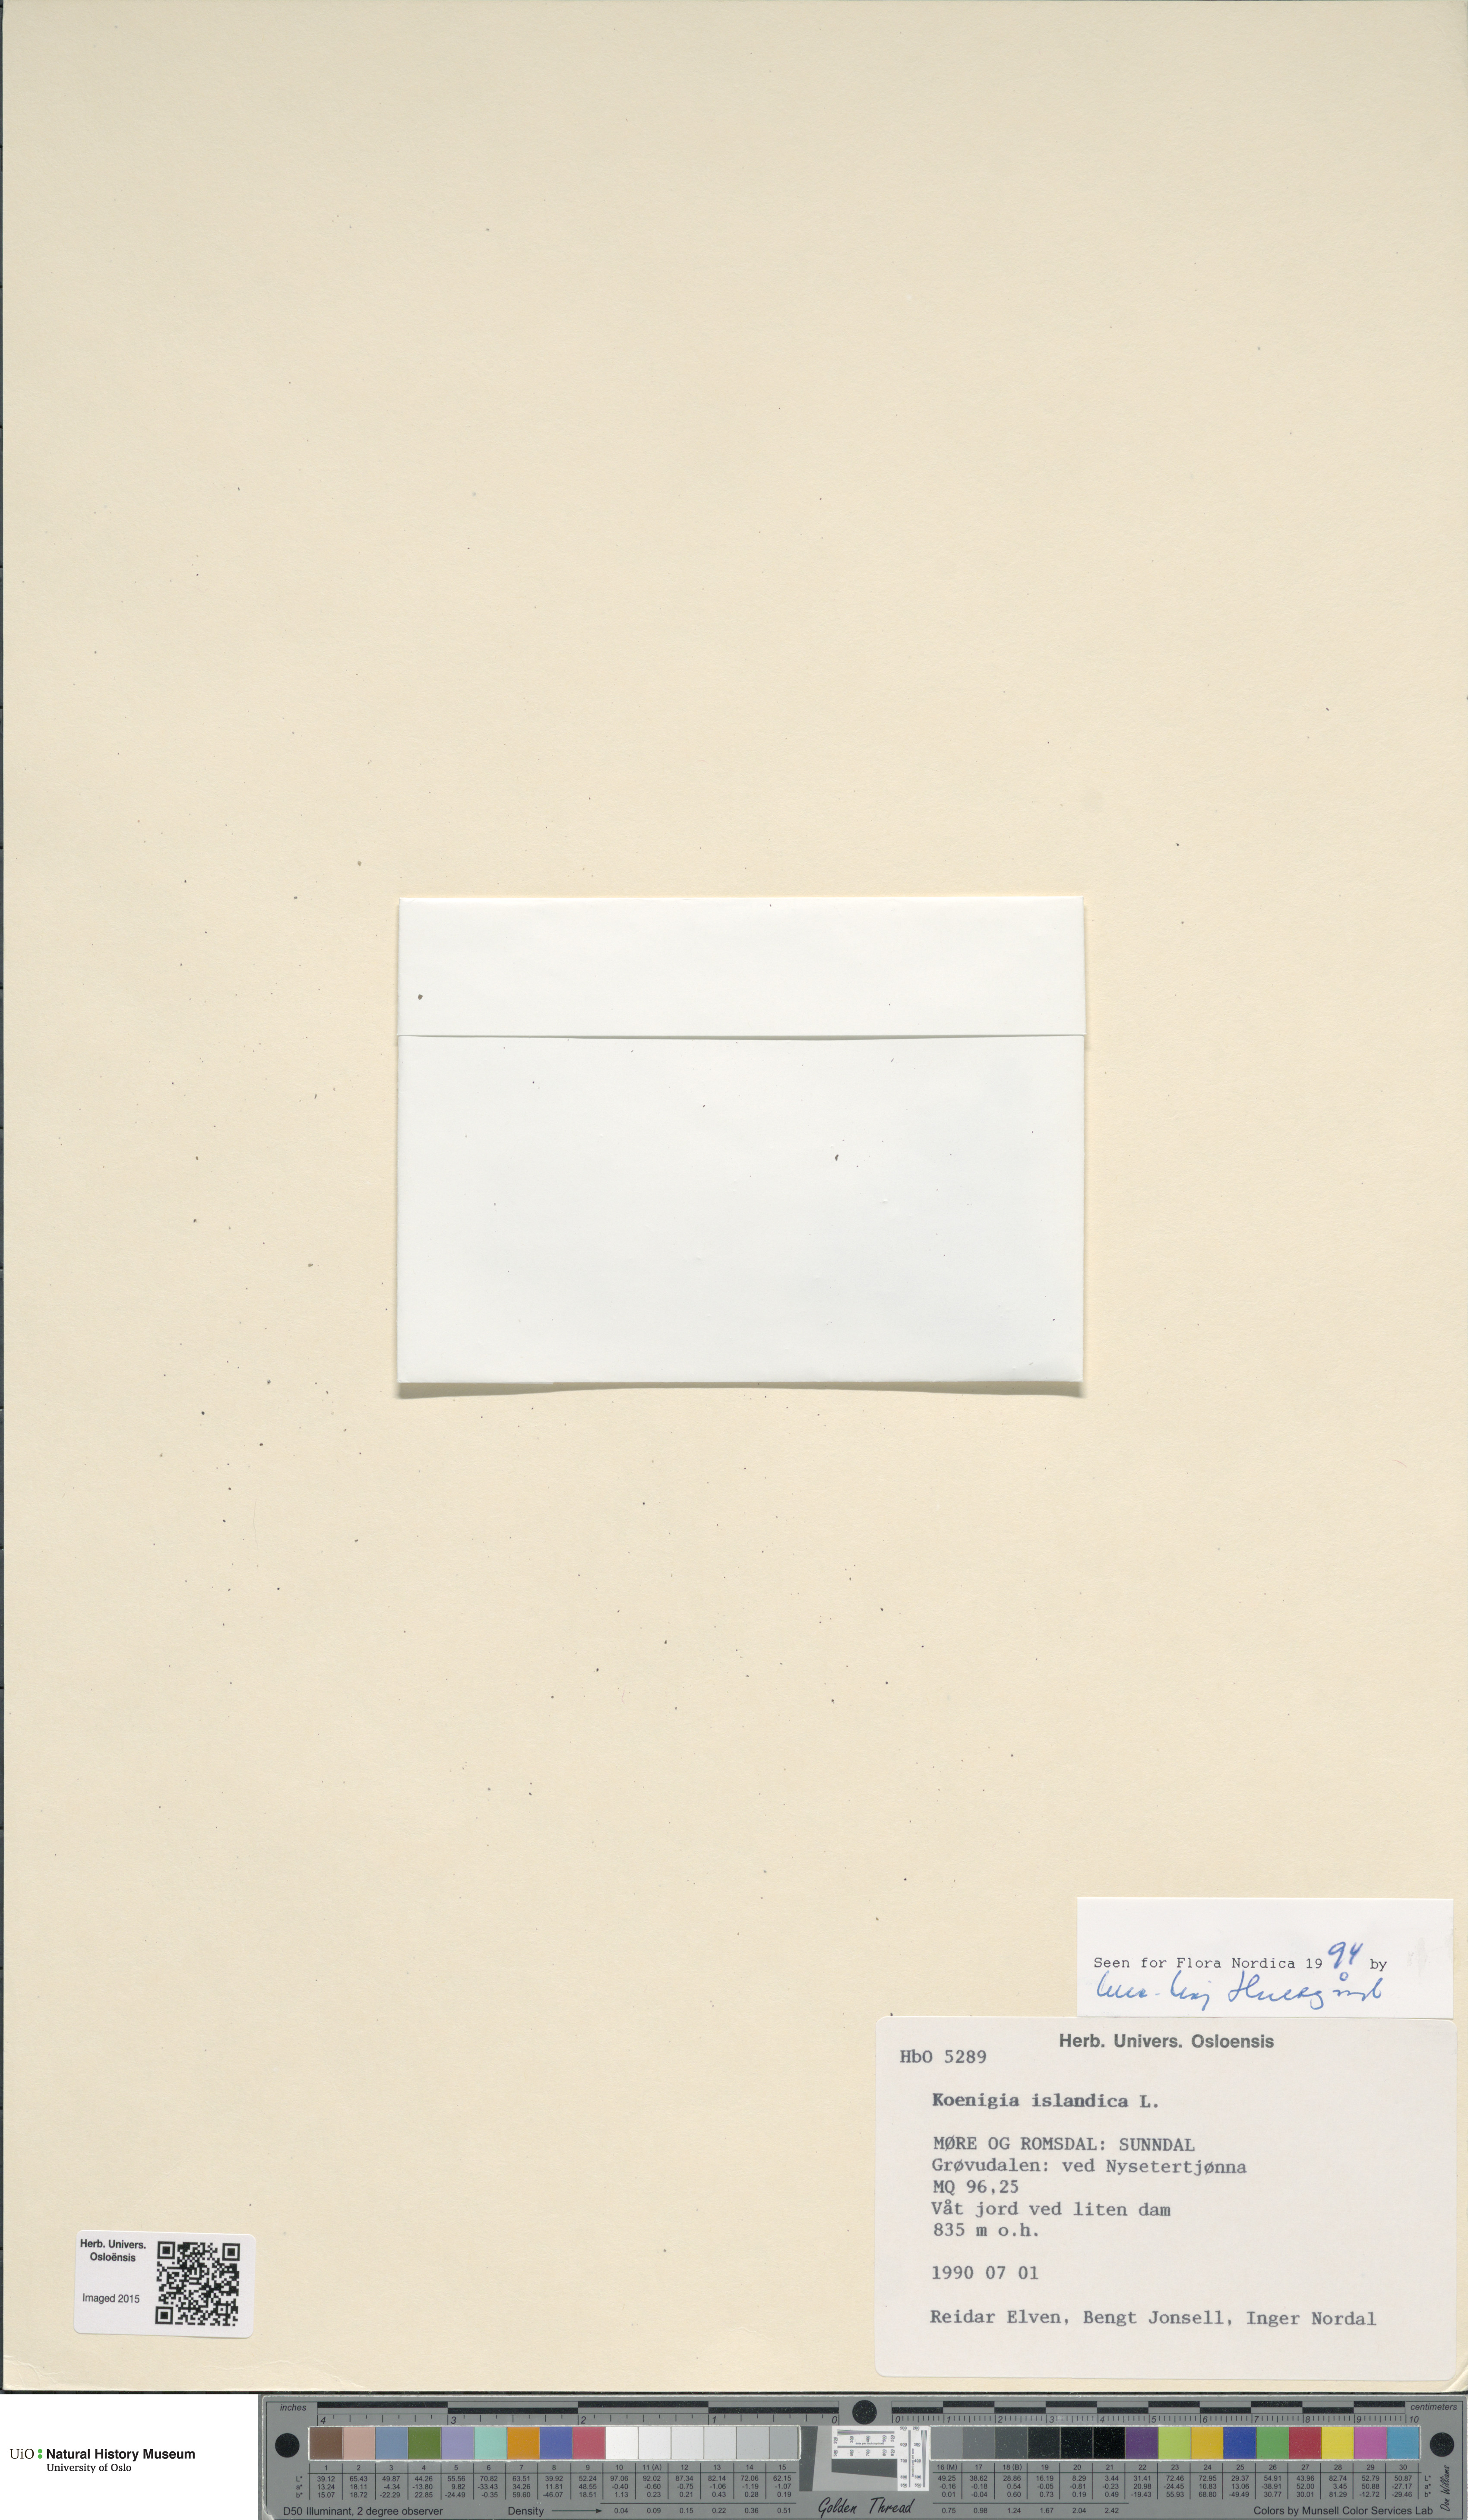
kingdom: Plantae
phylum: Tracheophyta
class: Magnoliopsida
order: Caryophyllales
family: Polygonaceae
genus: Koenigia
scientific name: Koenigia islandica
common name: Iceland-purslane
